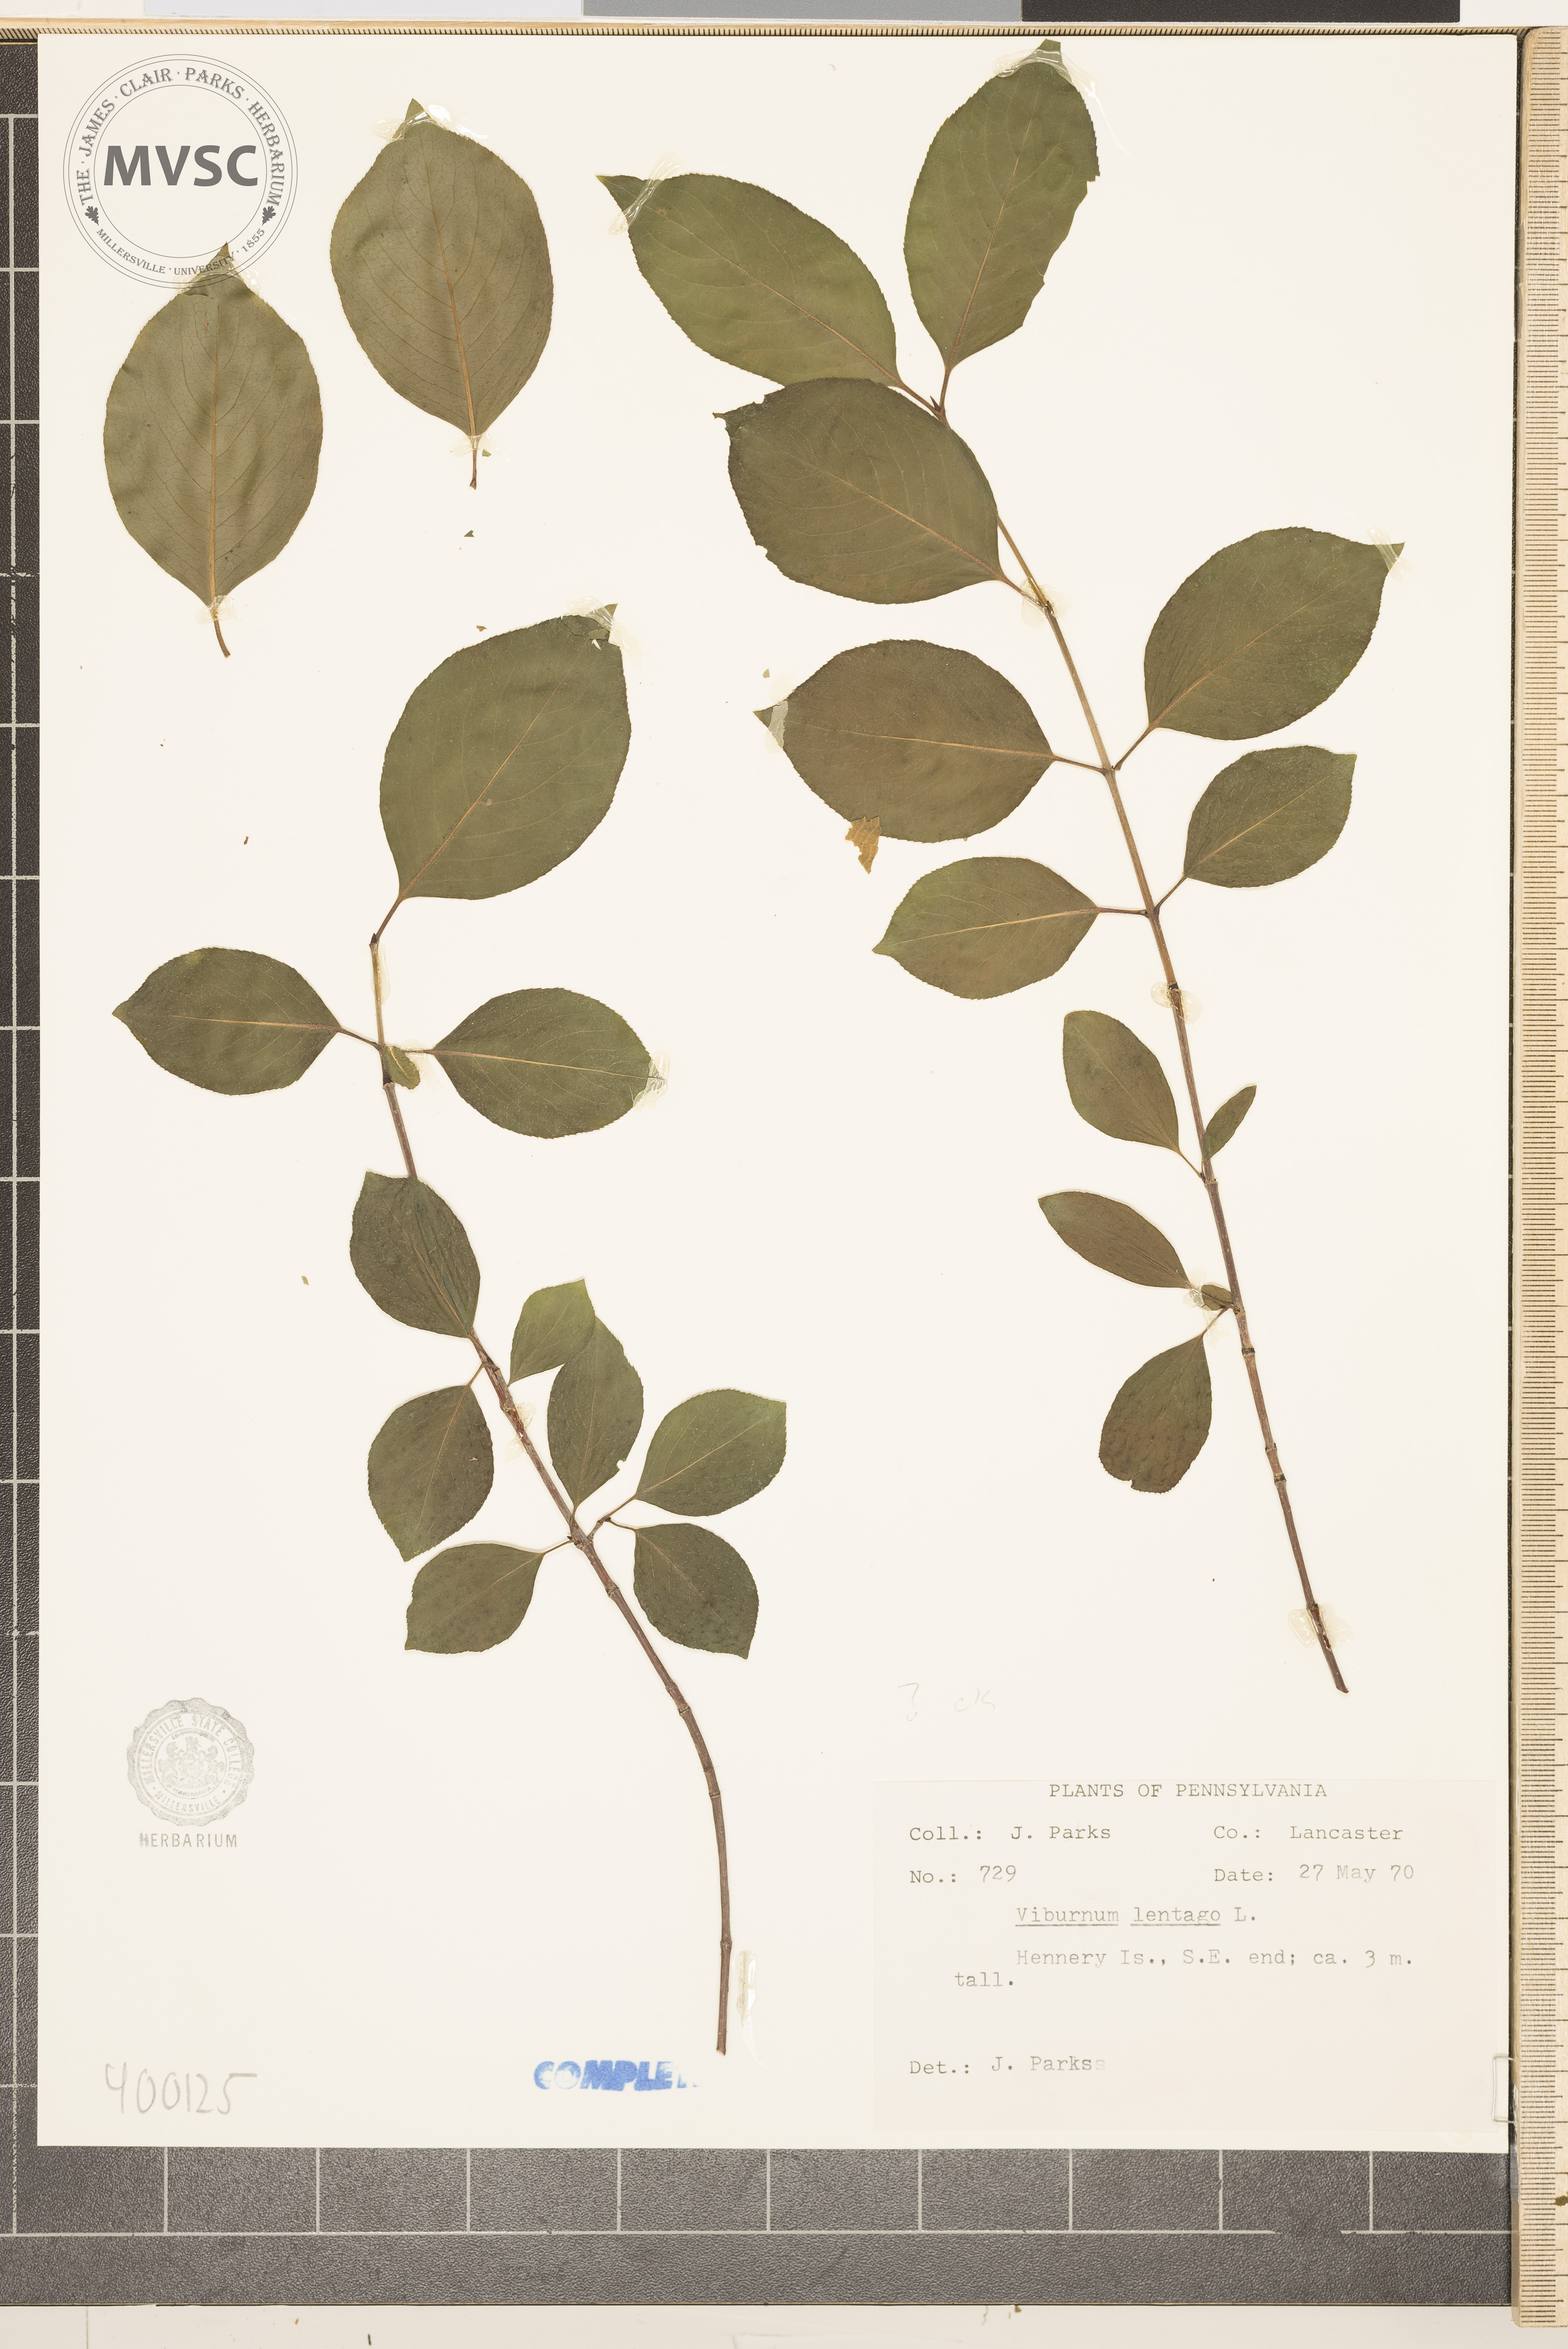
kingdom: Plantae
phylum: Tracheophyta
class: Magnoliopsida
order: Dipsacales
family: Viburnaceae
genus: Viburnum
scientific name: Viburnum lentago
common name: viburnum
